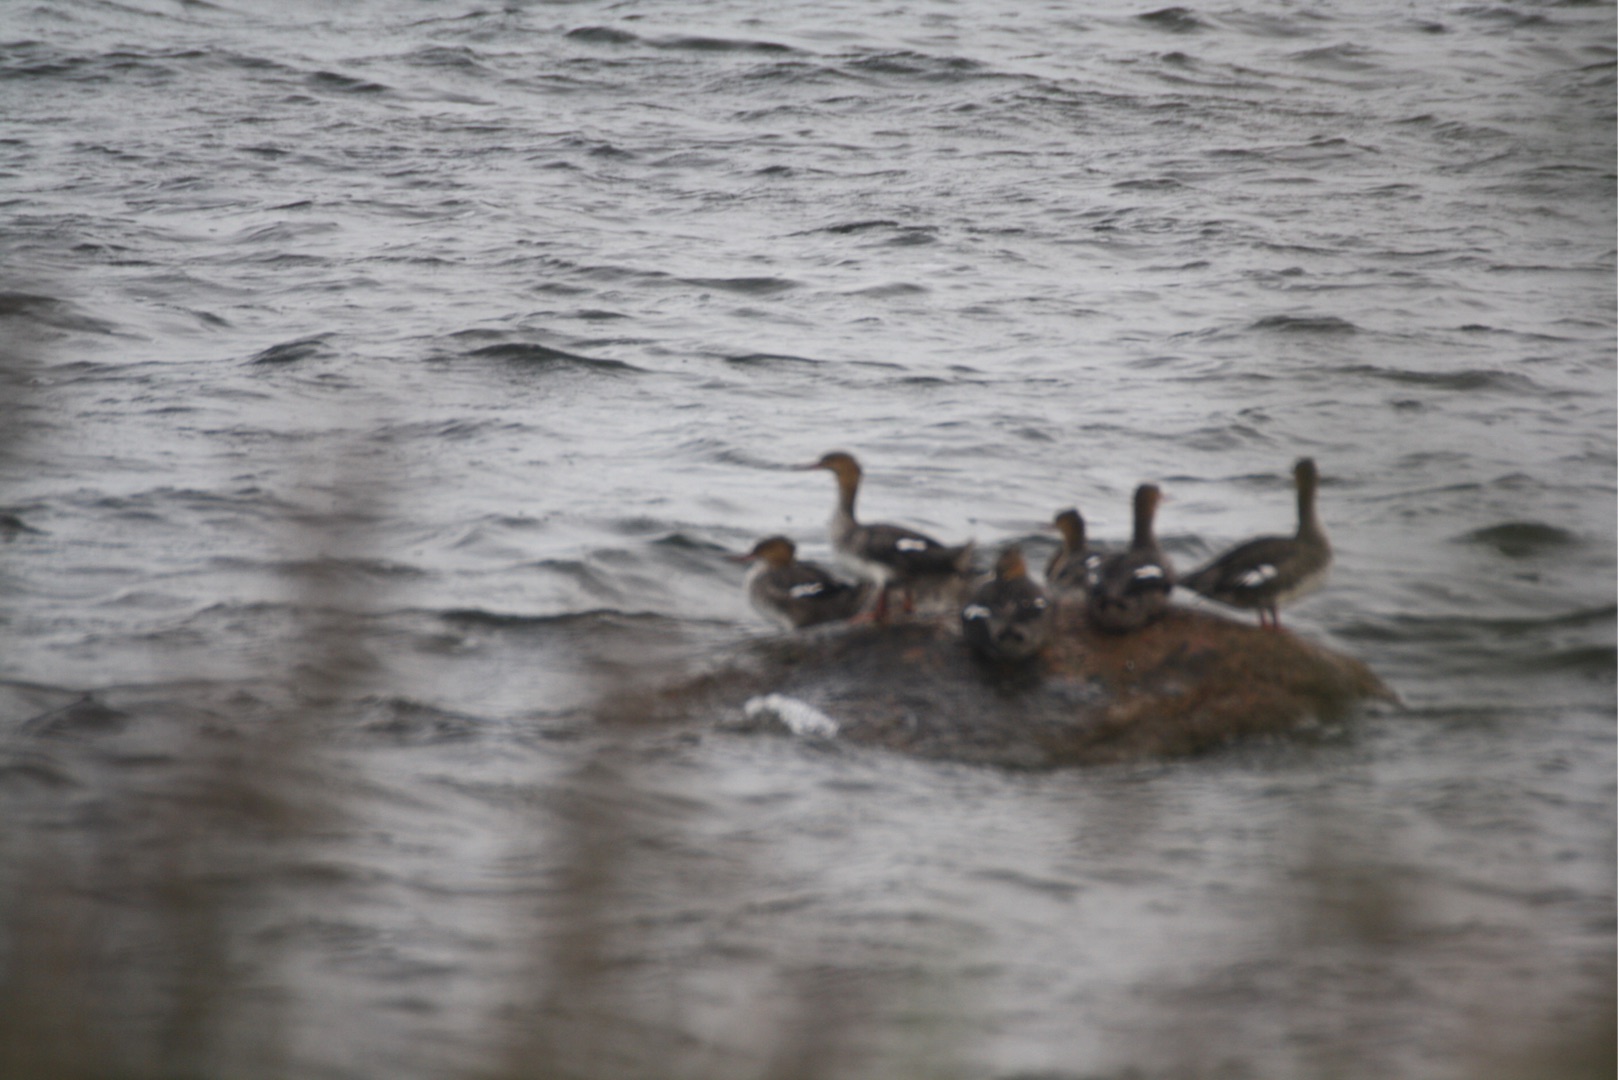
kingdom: Animalia
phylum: Chordata
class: Aves
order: Anseriformes
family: Anatidae
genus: Mergus
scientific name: Mergus serrator
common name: Toppet skallesluger
